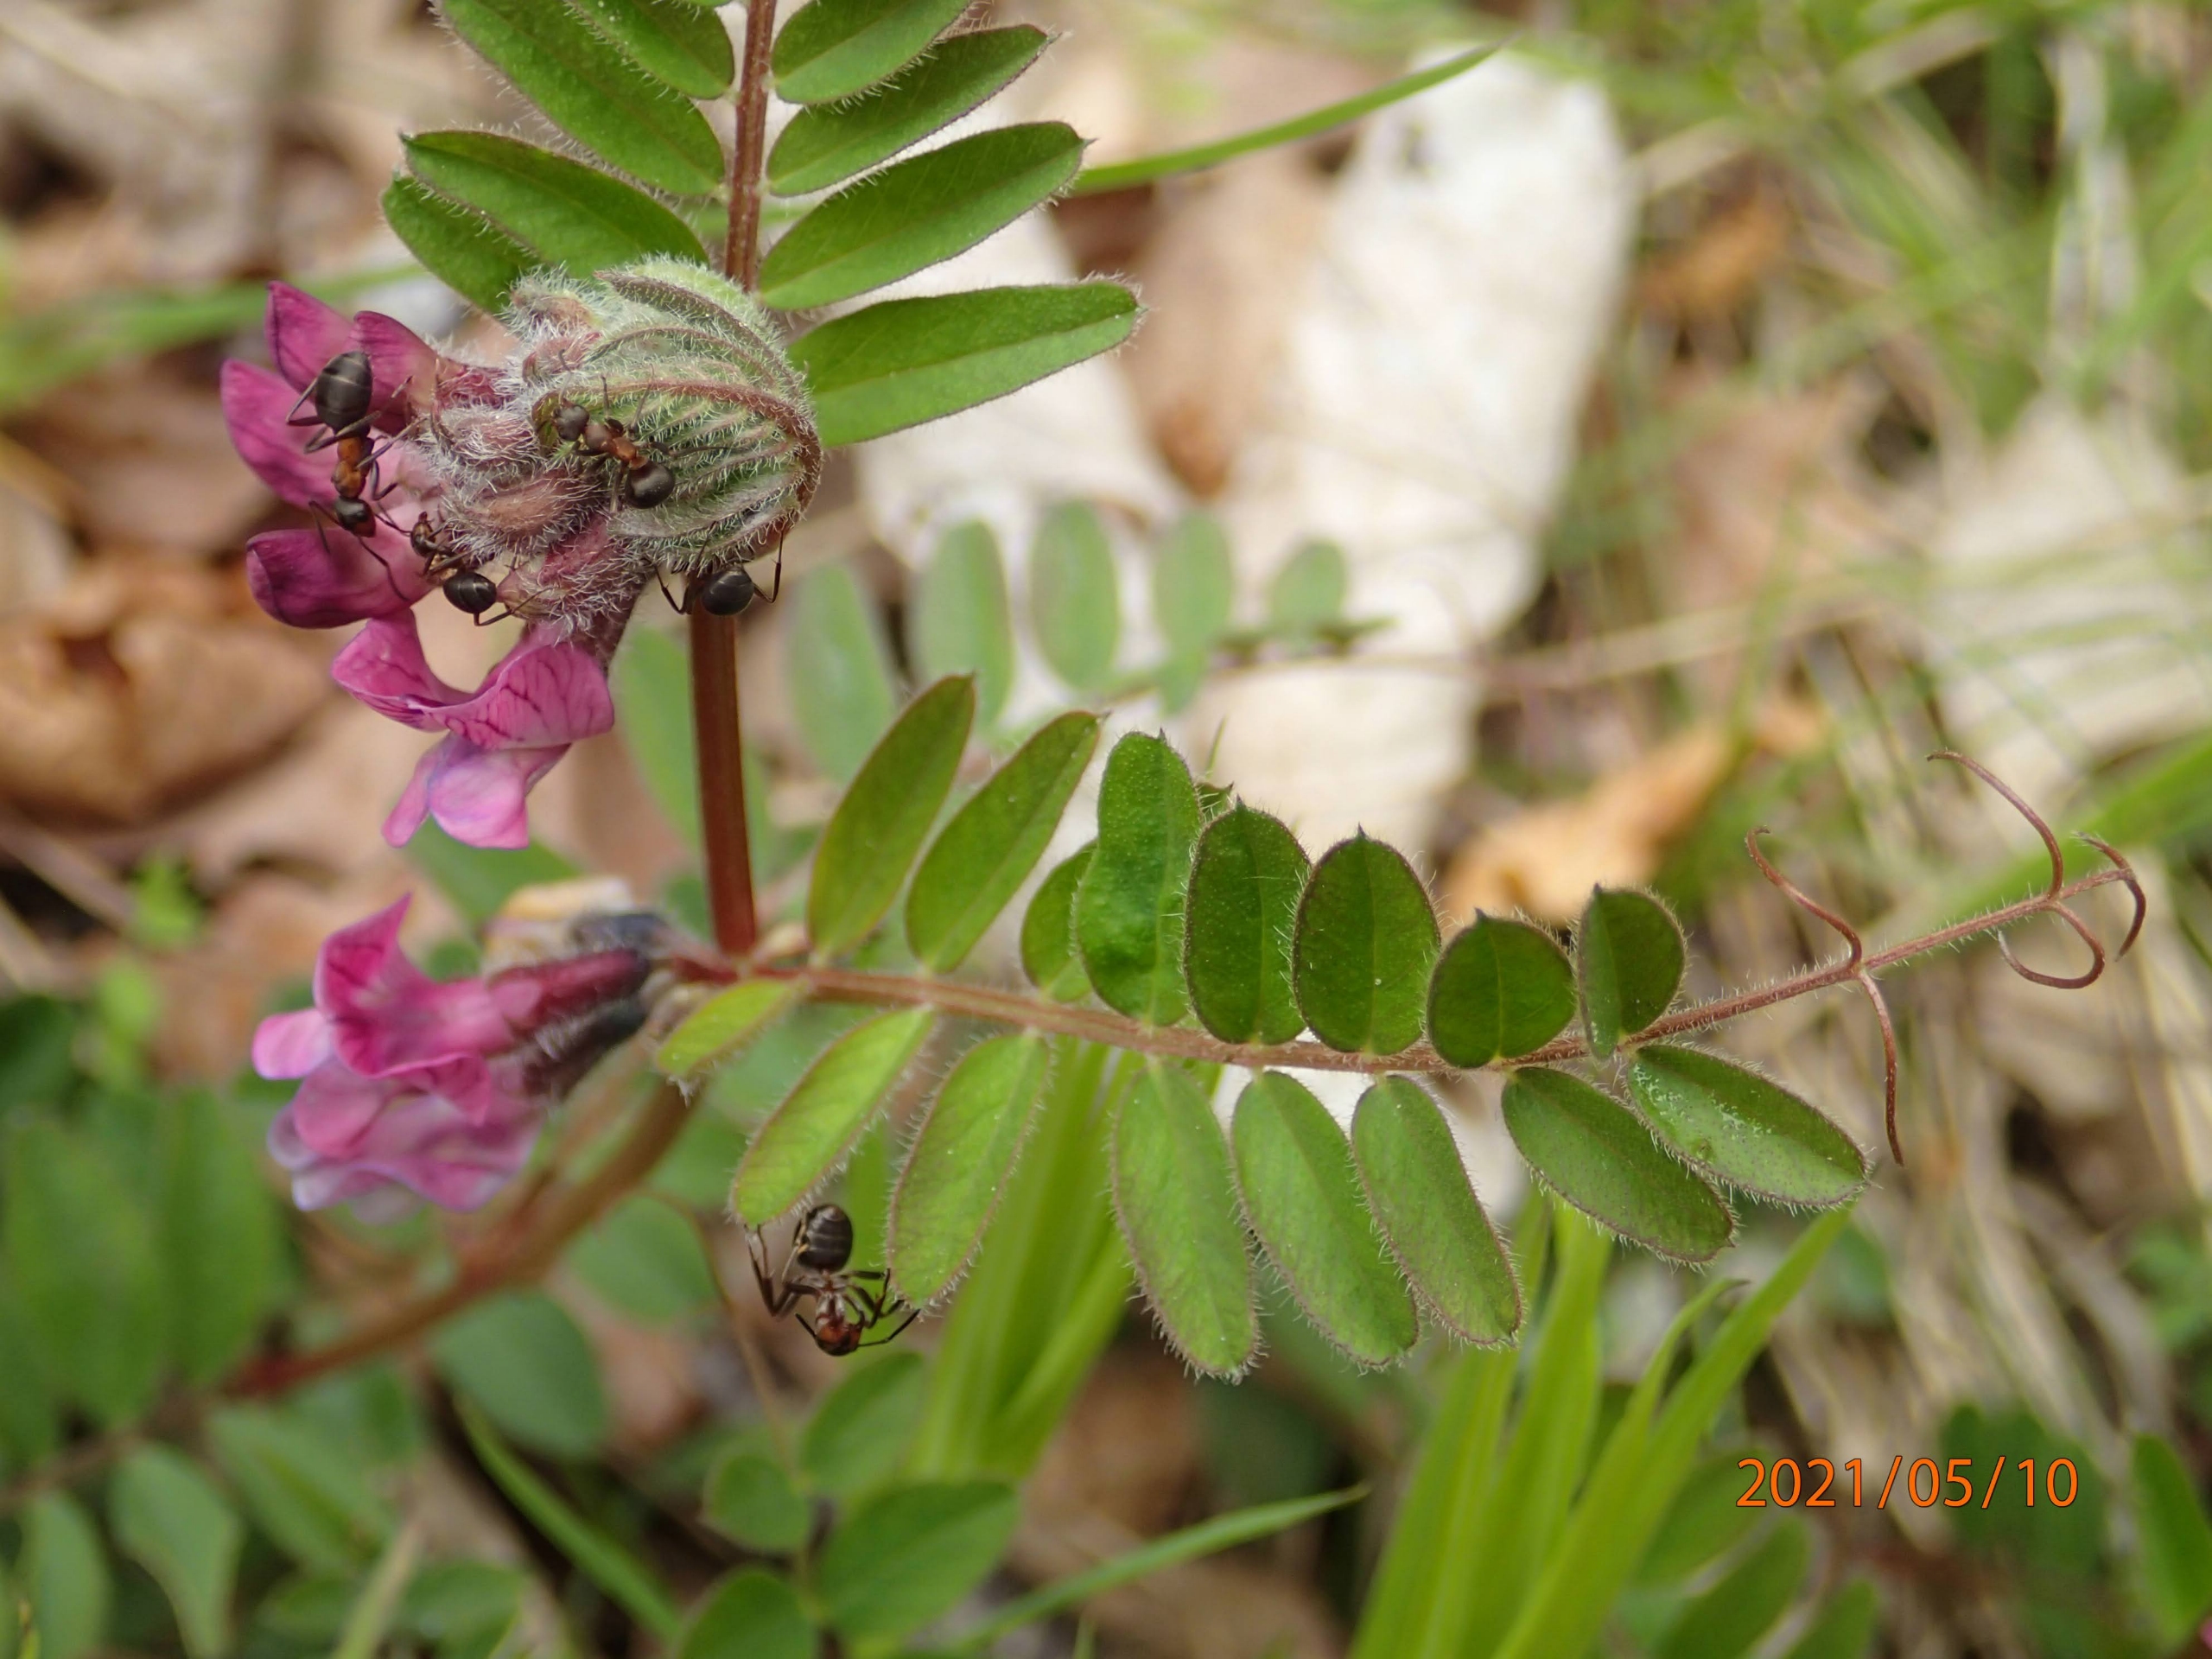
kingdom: Plantae
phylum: Tracheophyta
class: Magnoliopsida
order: Fabales
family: Fabaceae
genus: Vicia
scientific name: Vicia sepium
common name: Gærde-vikke
